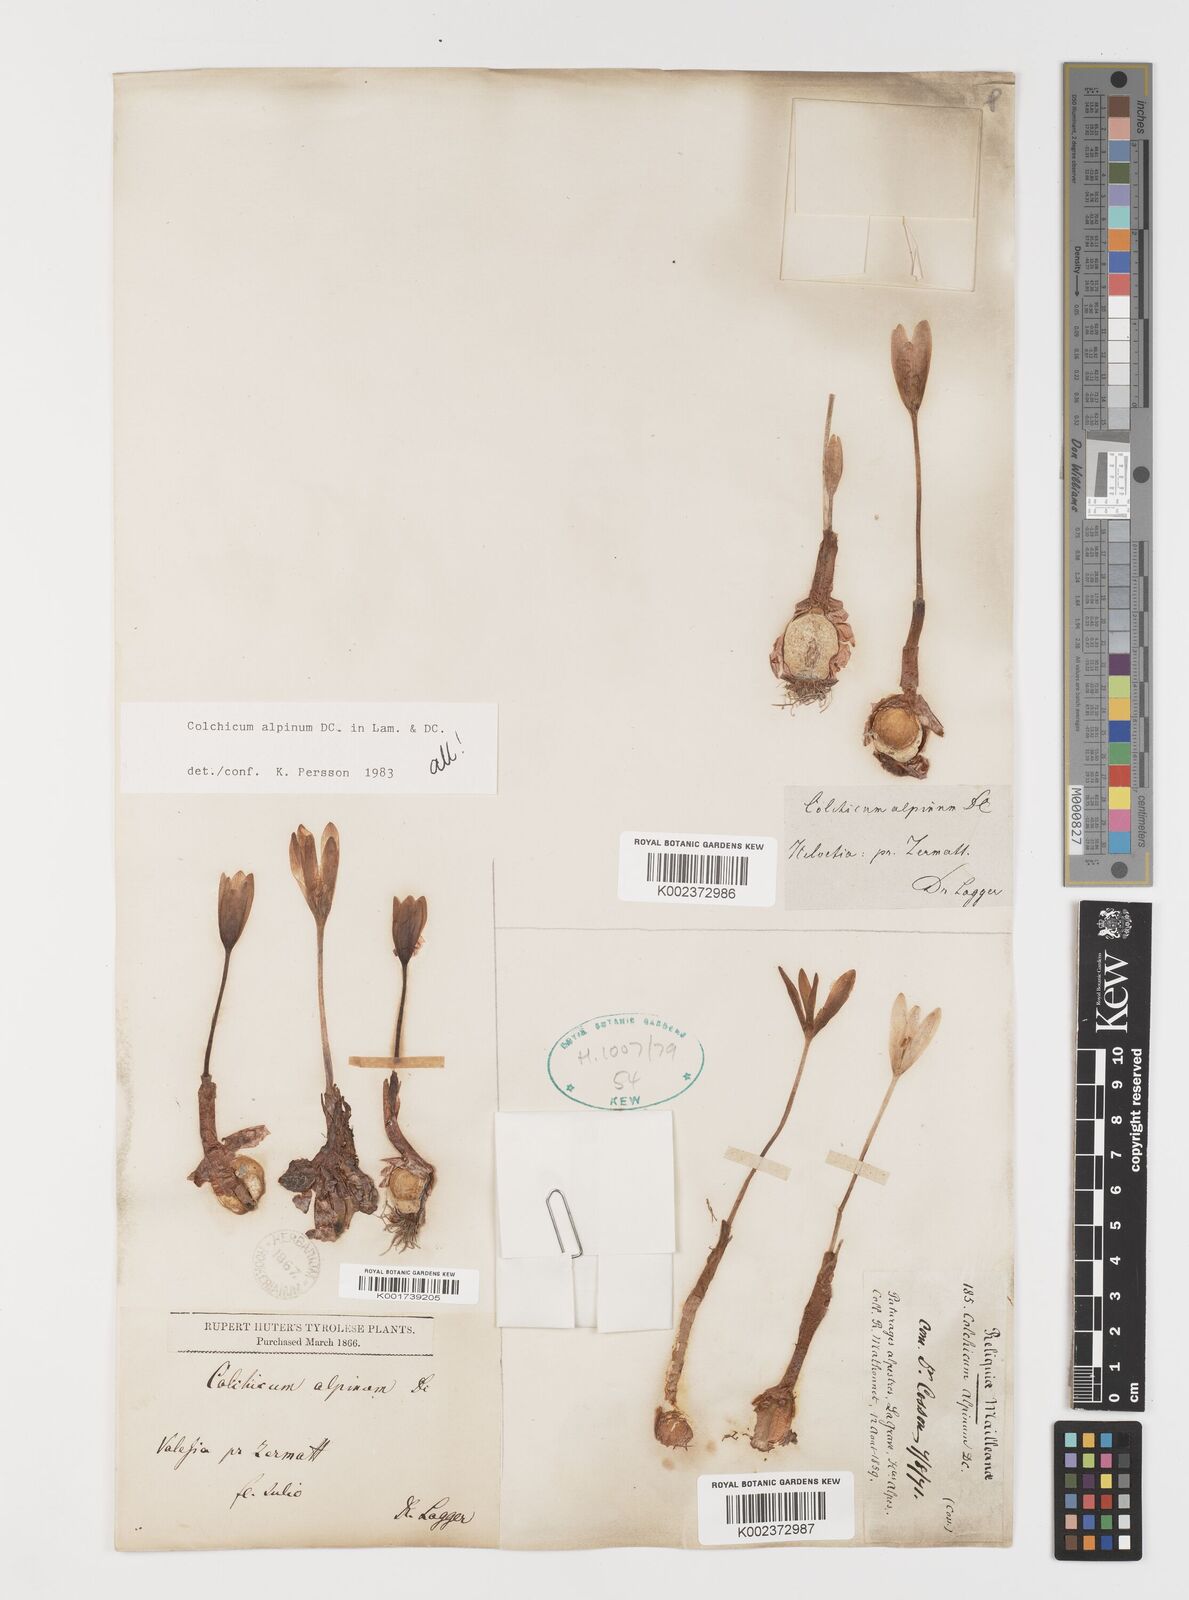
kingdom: Plantae
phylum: Tracheophyta
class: Liliopsida
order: Liliales
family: Colchicaceae
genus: Colchicum
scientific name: Colchicum alpinum
